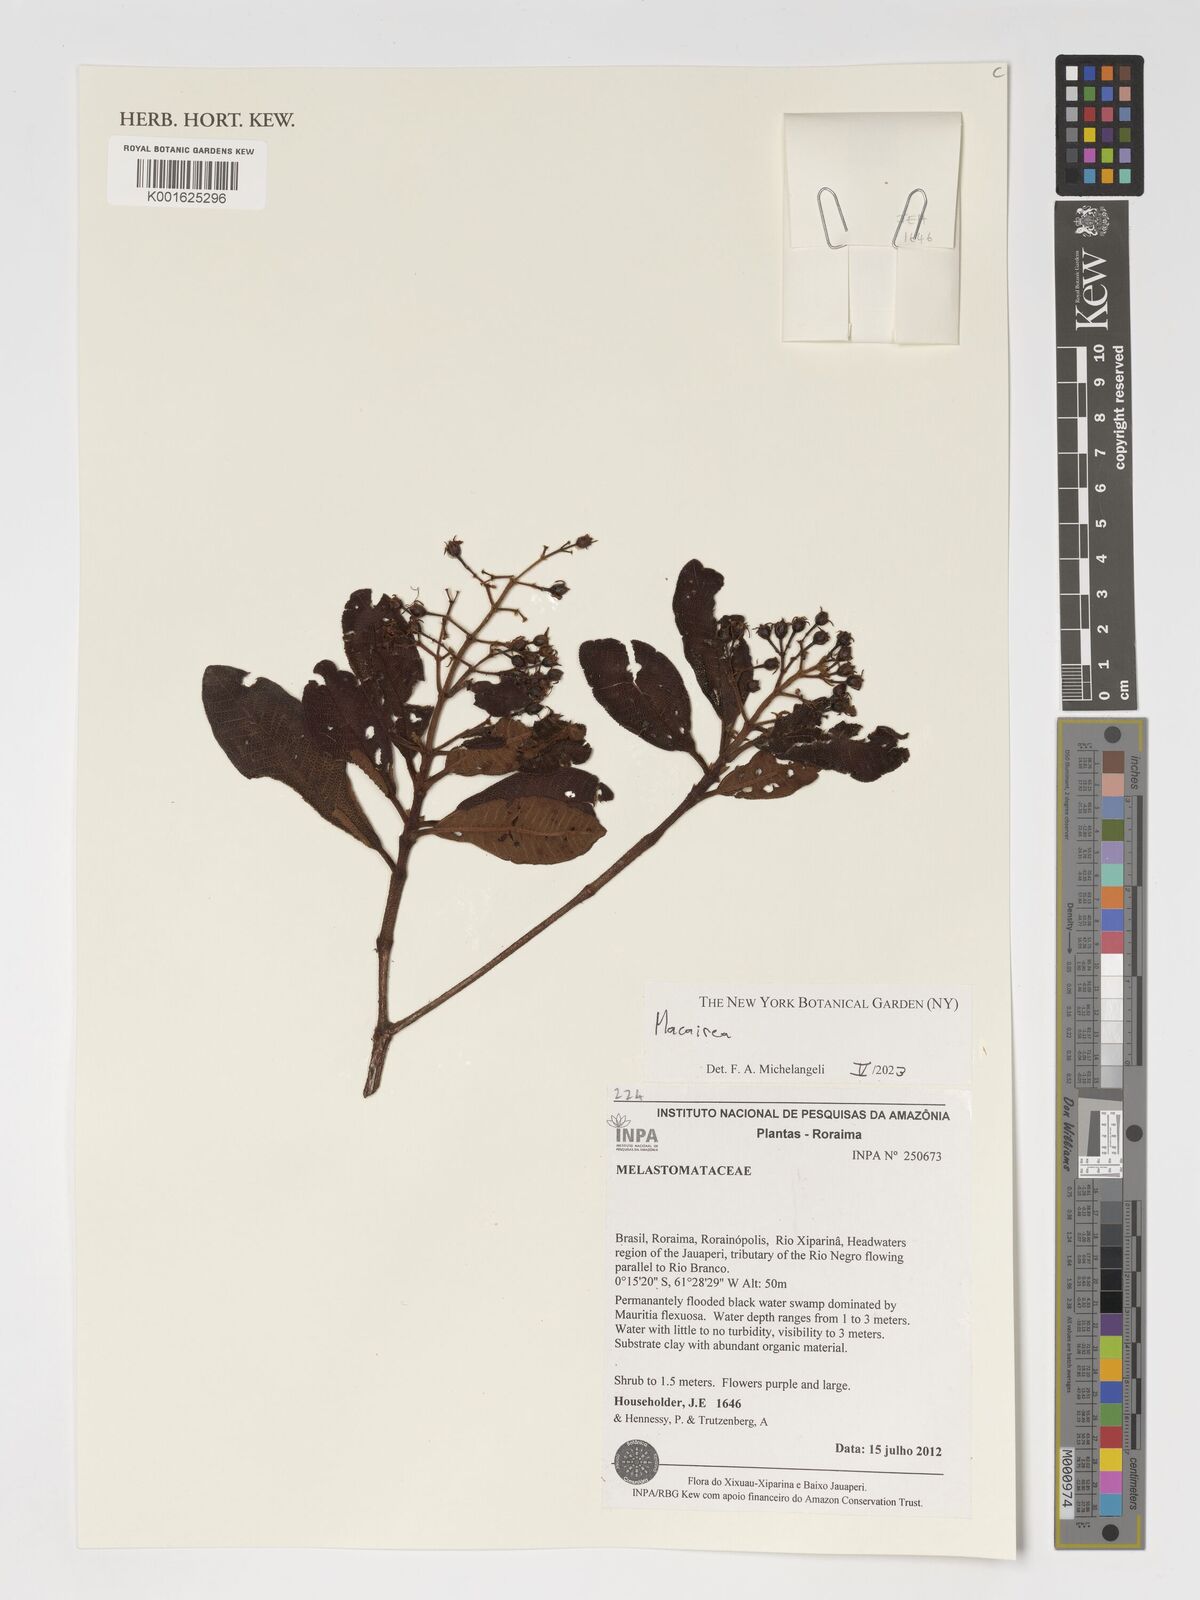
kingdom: Plantae
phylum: Tracheophyta
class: Magnoliopsida
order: Myrtales
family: Melastomataceae
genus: Macairea
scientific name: Macairea
